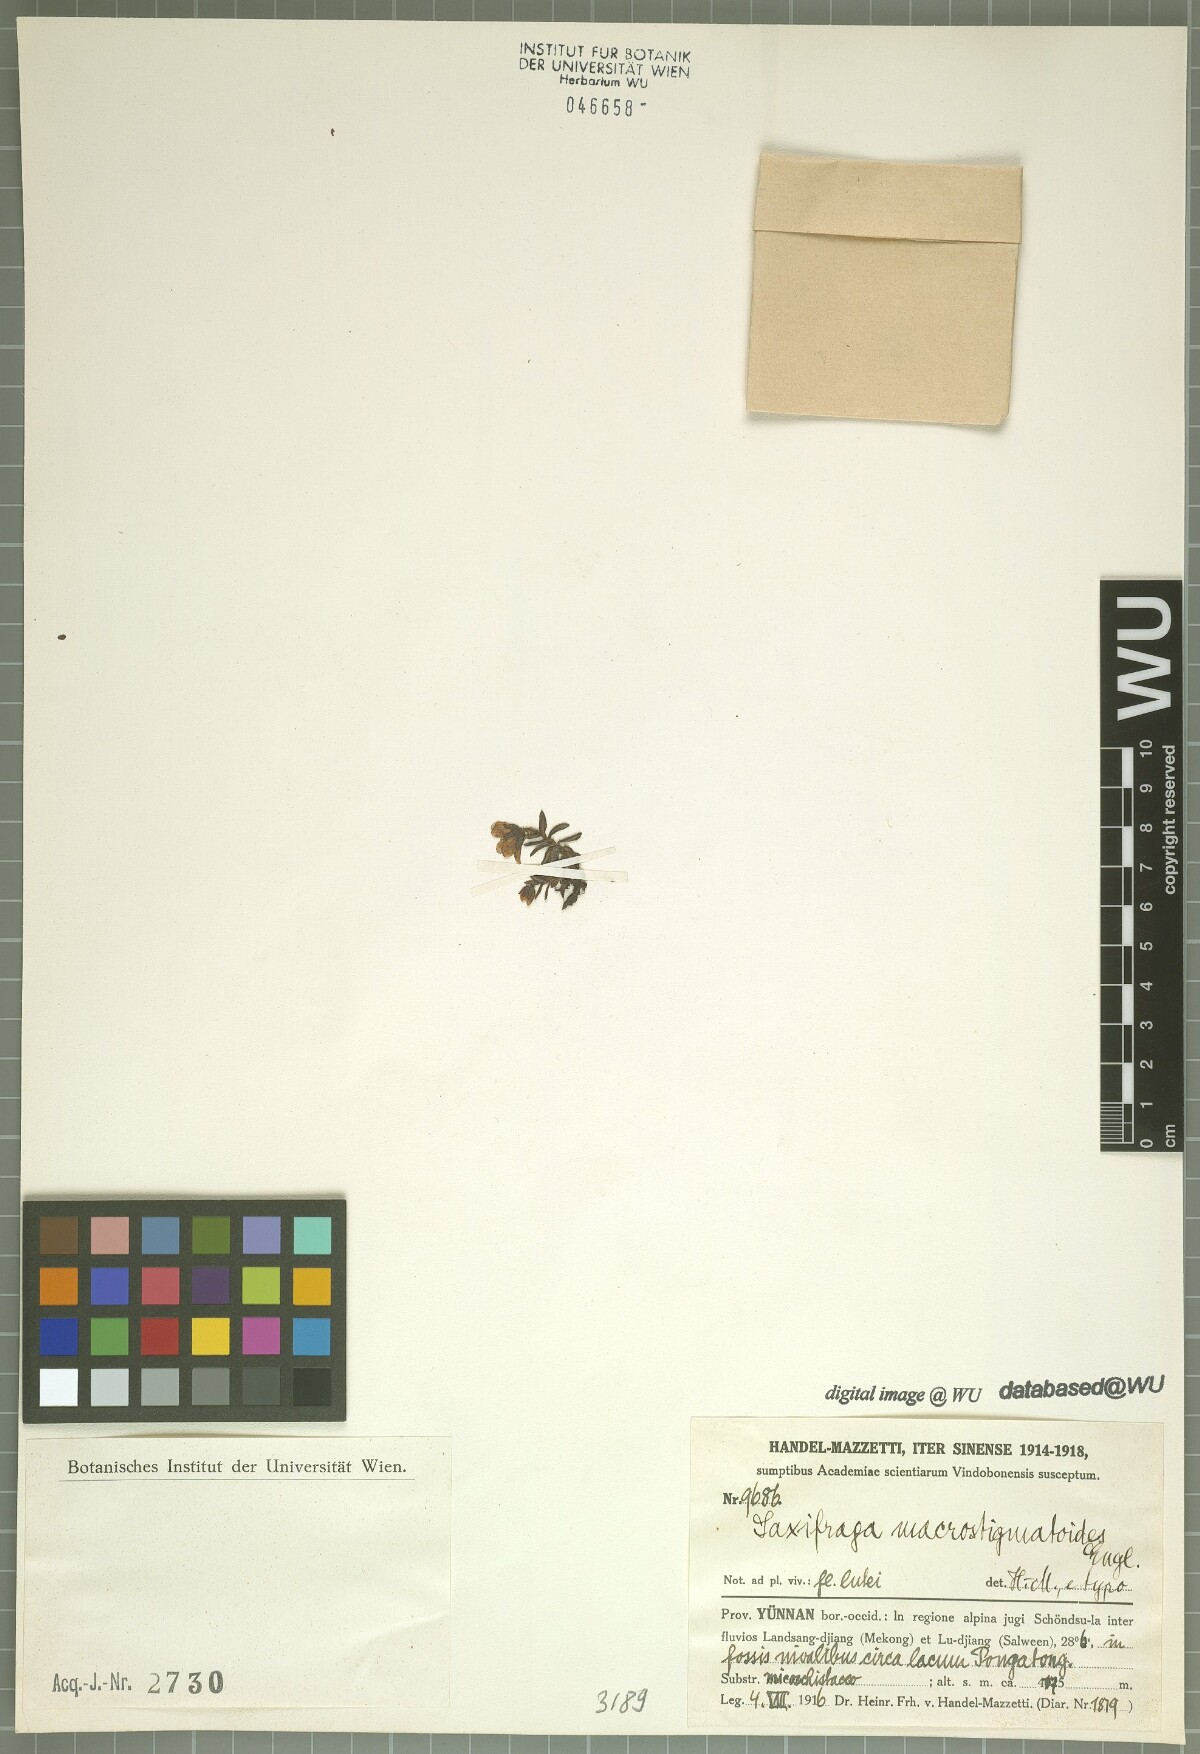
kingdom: Plantae
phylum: Tracheophyta
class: Magnoliopsida
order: Saxifragales
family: Saxifragaceae
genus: Saxifraga
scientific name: Saxifraga macrostigmatoides
